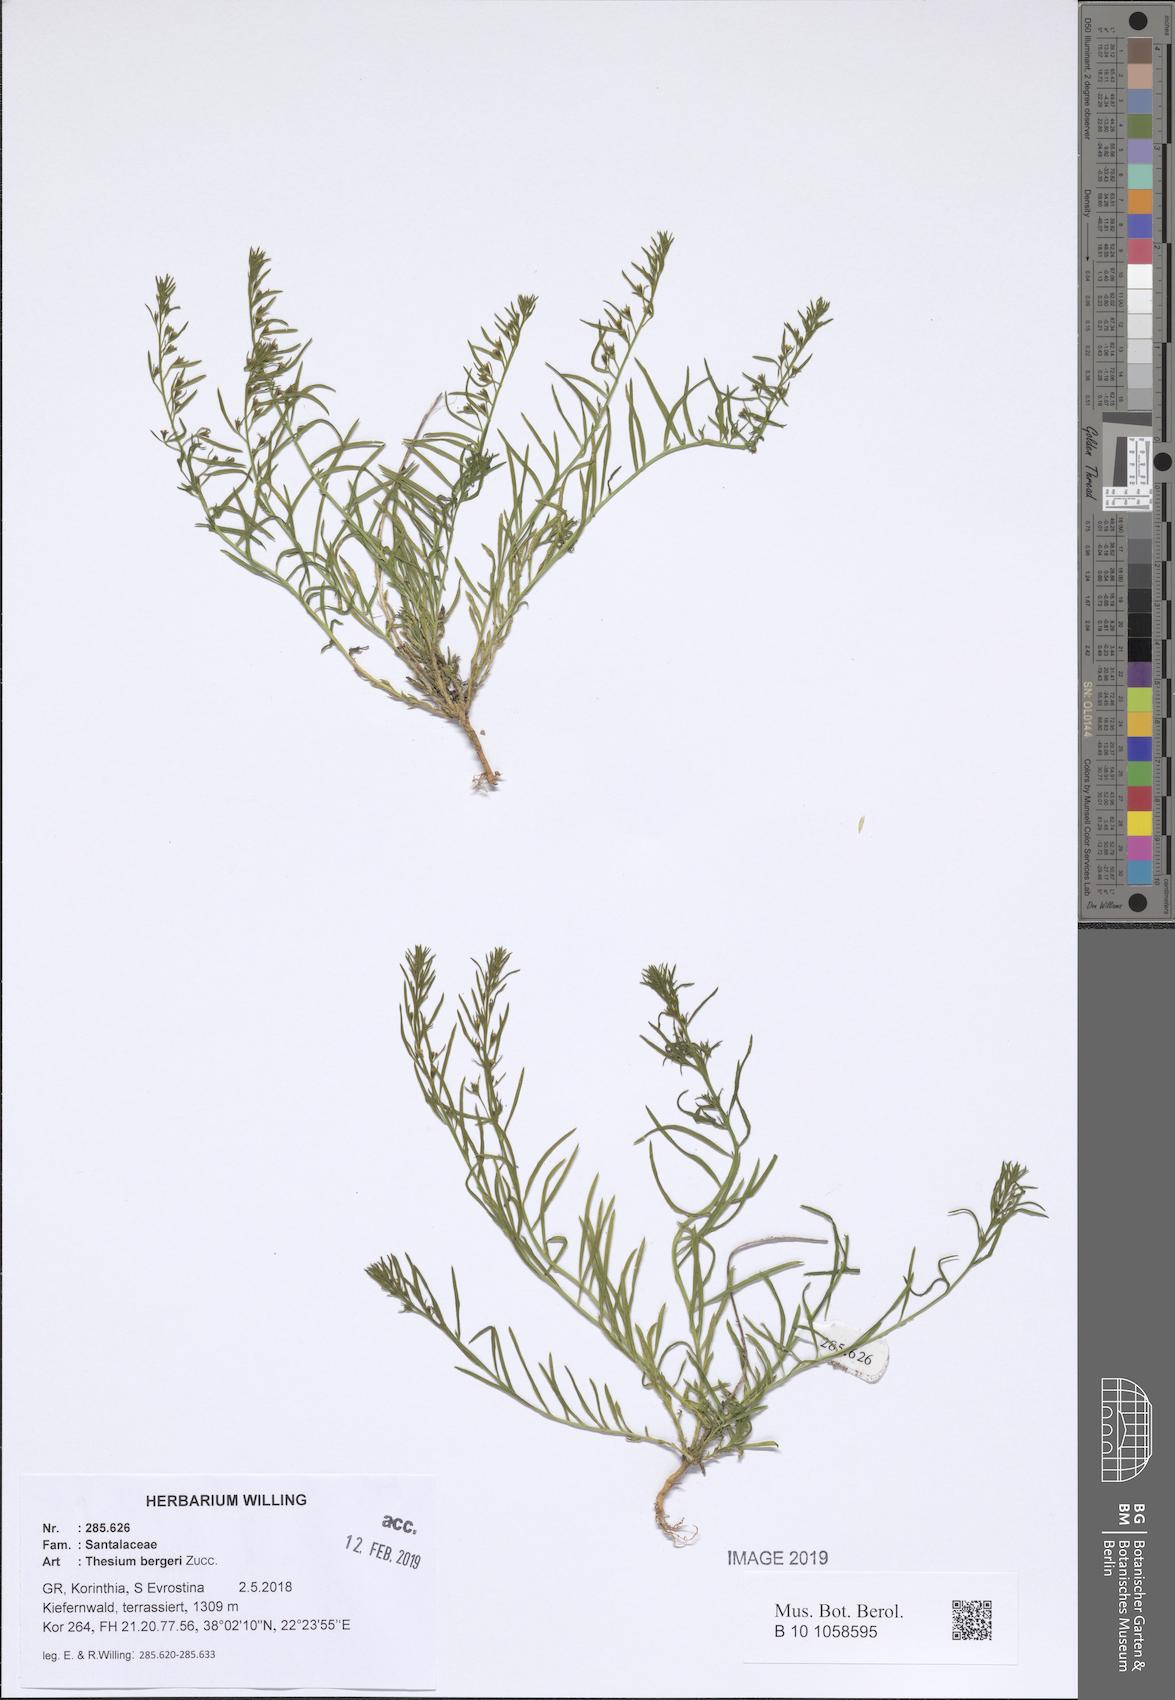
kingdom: Plantae
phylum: Tracheophyta
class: Magnoliopsida
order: Santalales
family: Thesiaceae
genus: Thesium
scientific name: Thesium bergeri
